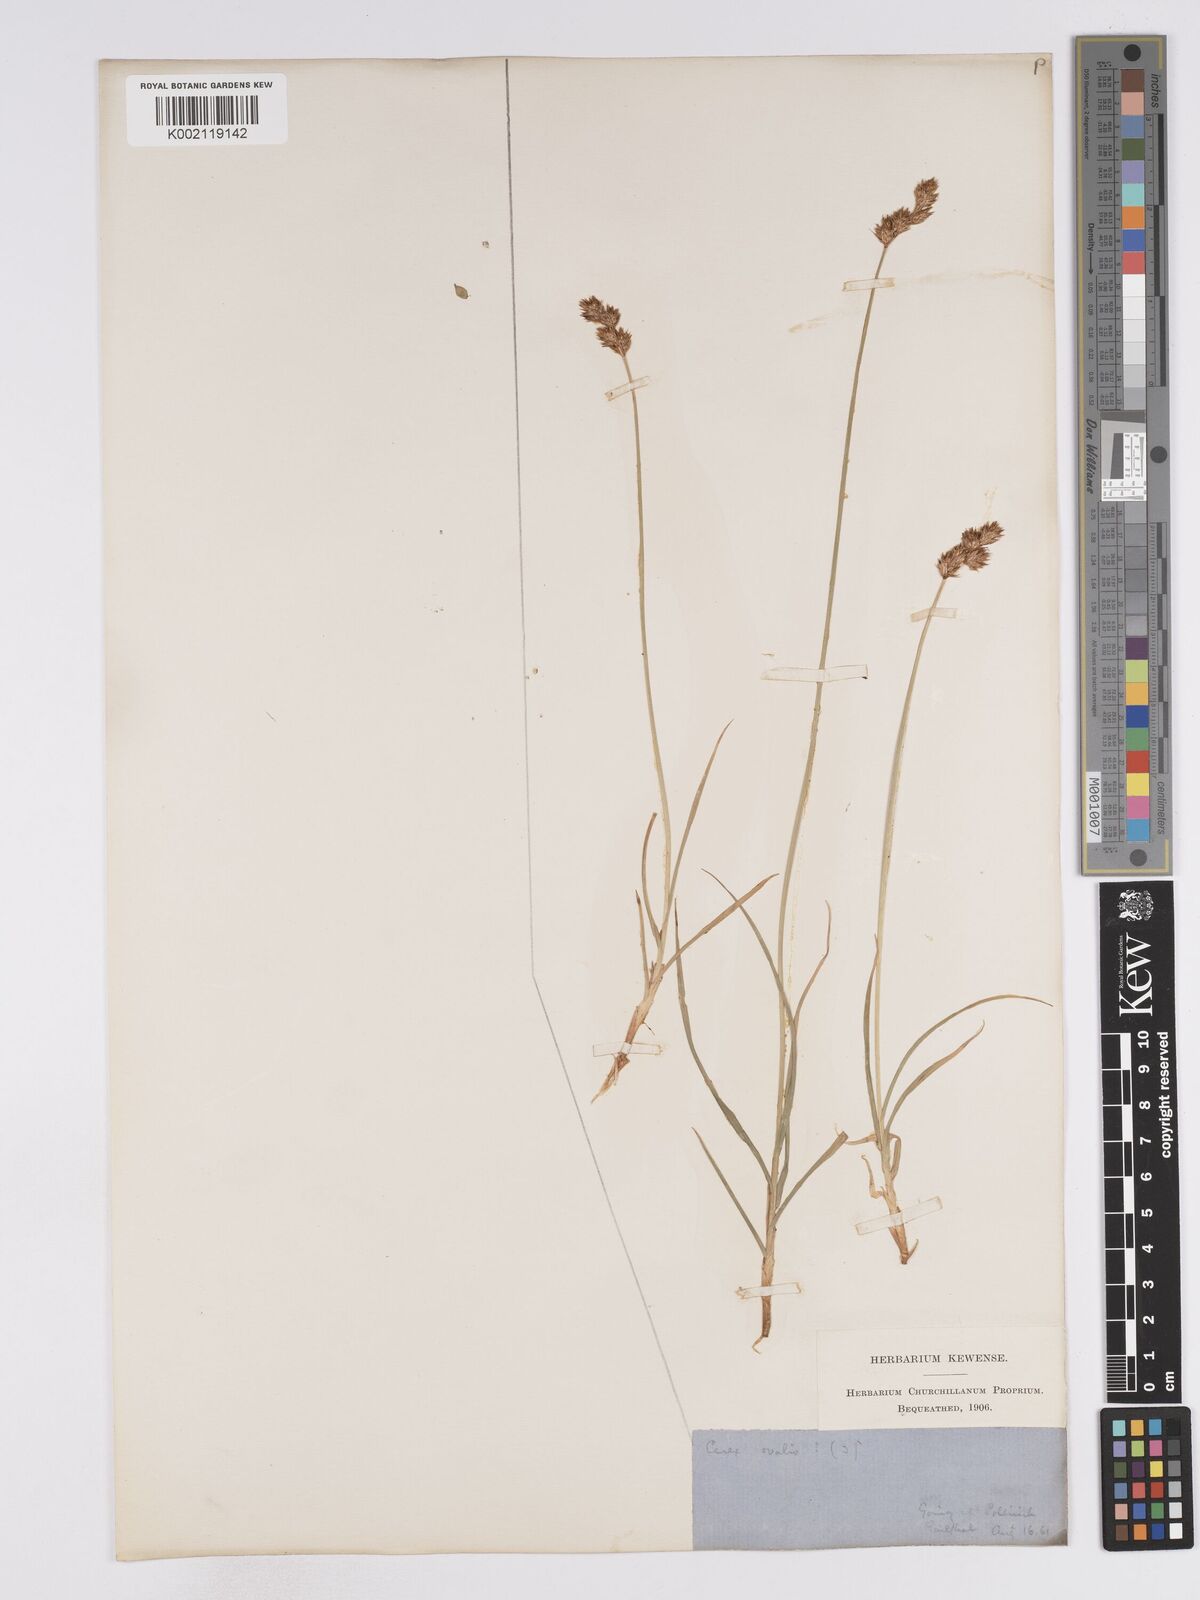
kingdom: Plantae
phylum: Tracheophyta
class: Liliopsida
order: Poales
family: Cyperaceae
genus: Carex
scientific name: Carex leporina
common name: Oval sedge
